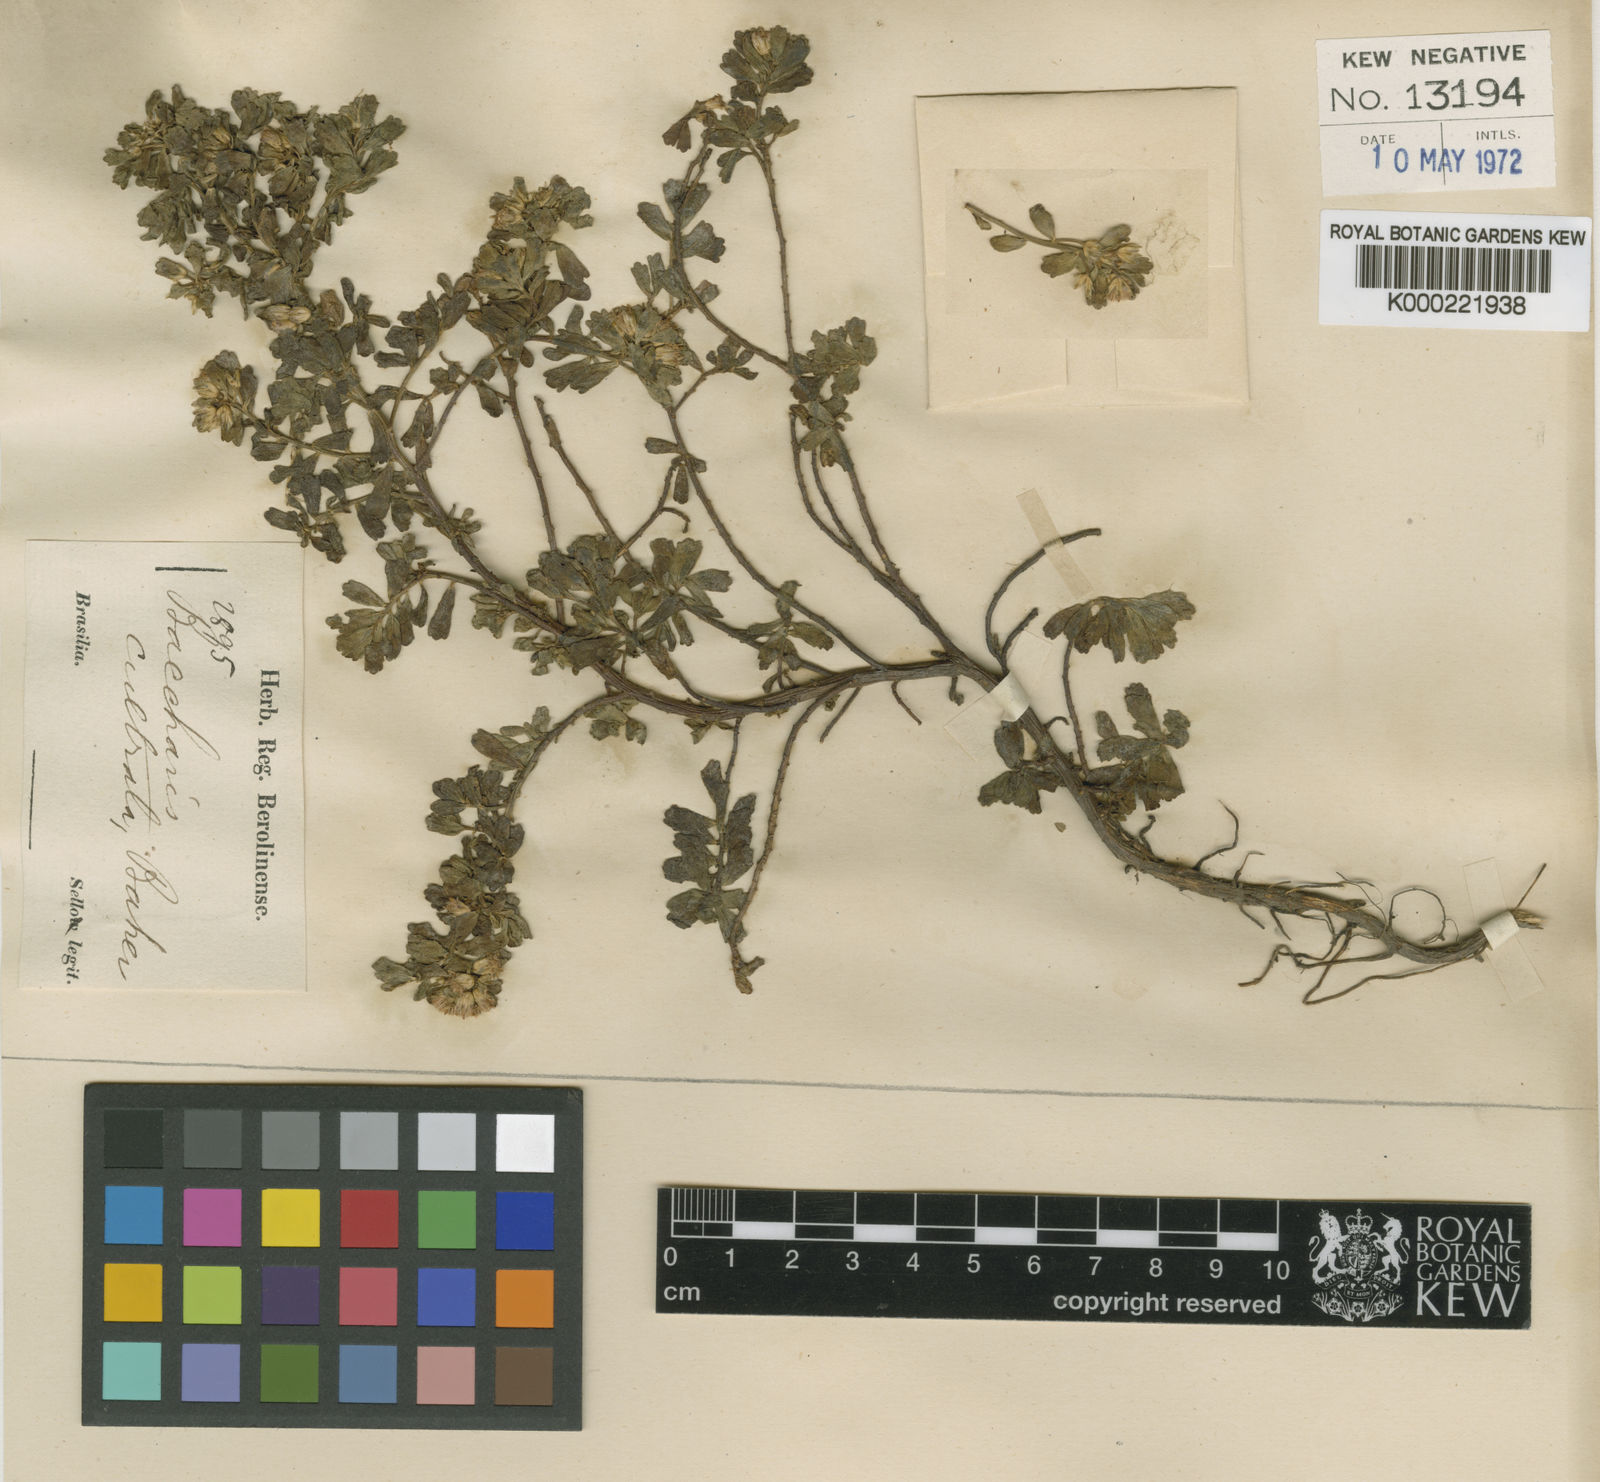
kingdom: Plantae
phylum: Tracheophyta
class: Magnoliopsida
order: Asterales
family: Asteraceae
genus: Baccharis
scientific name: Baccharis cultrata
